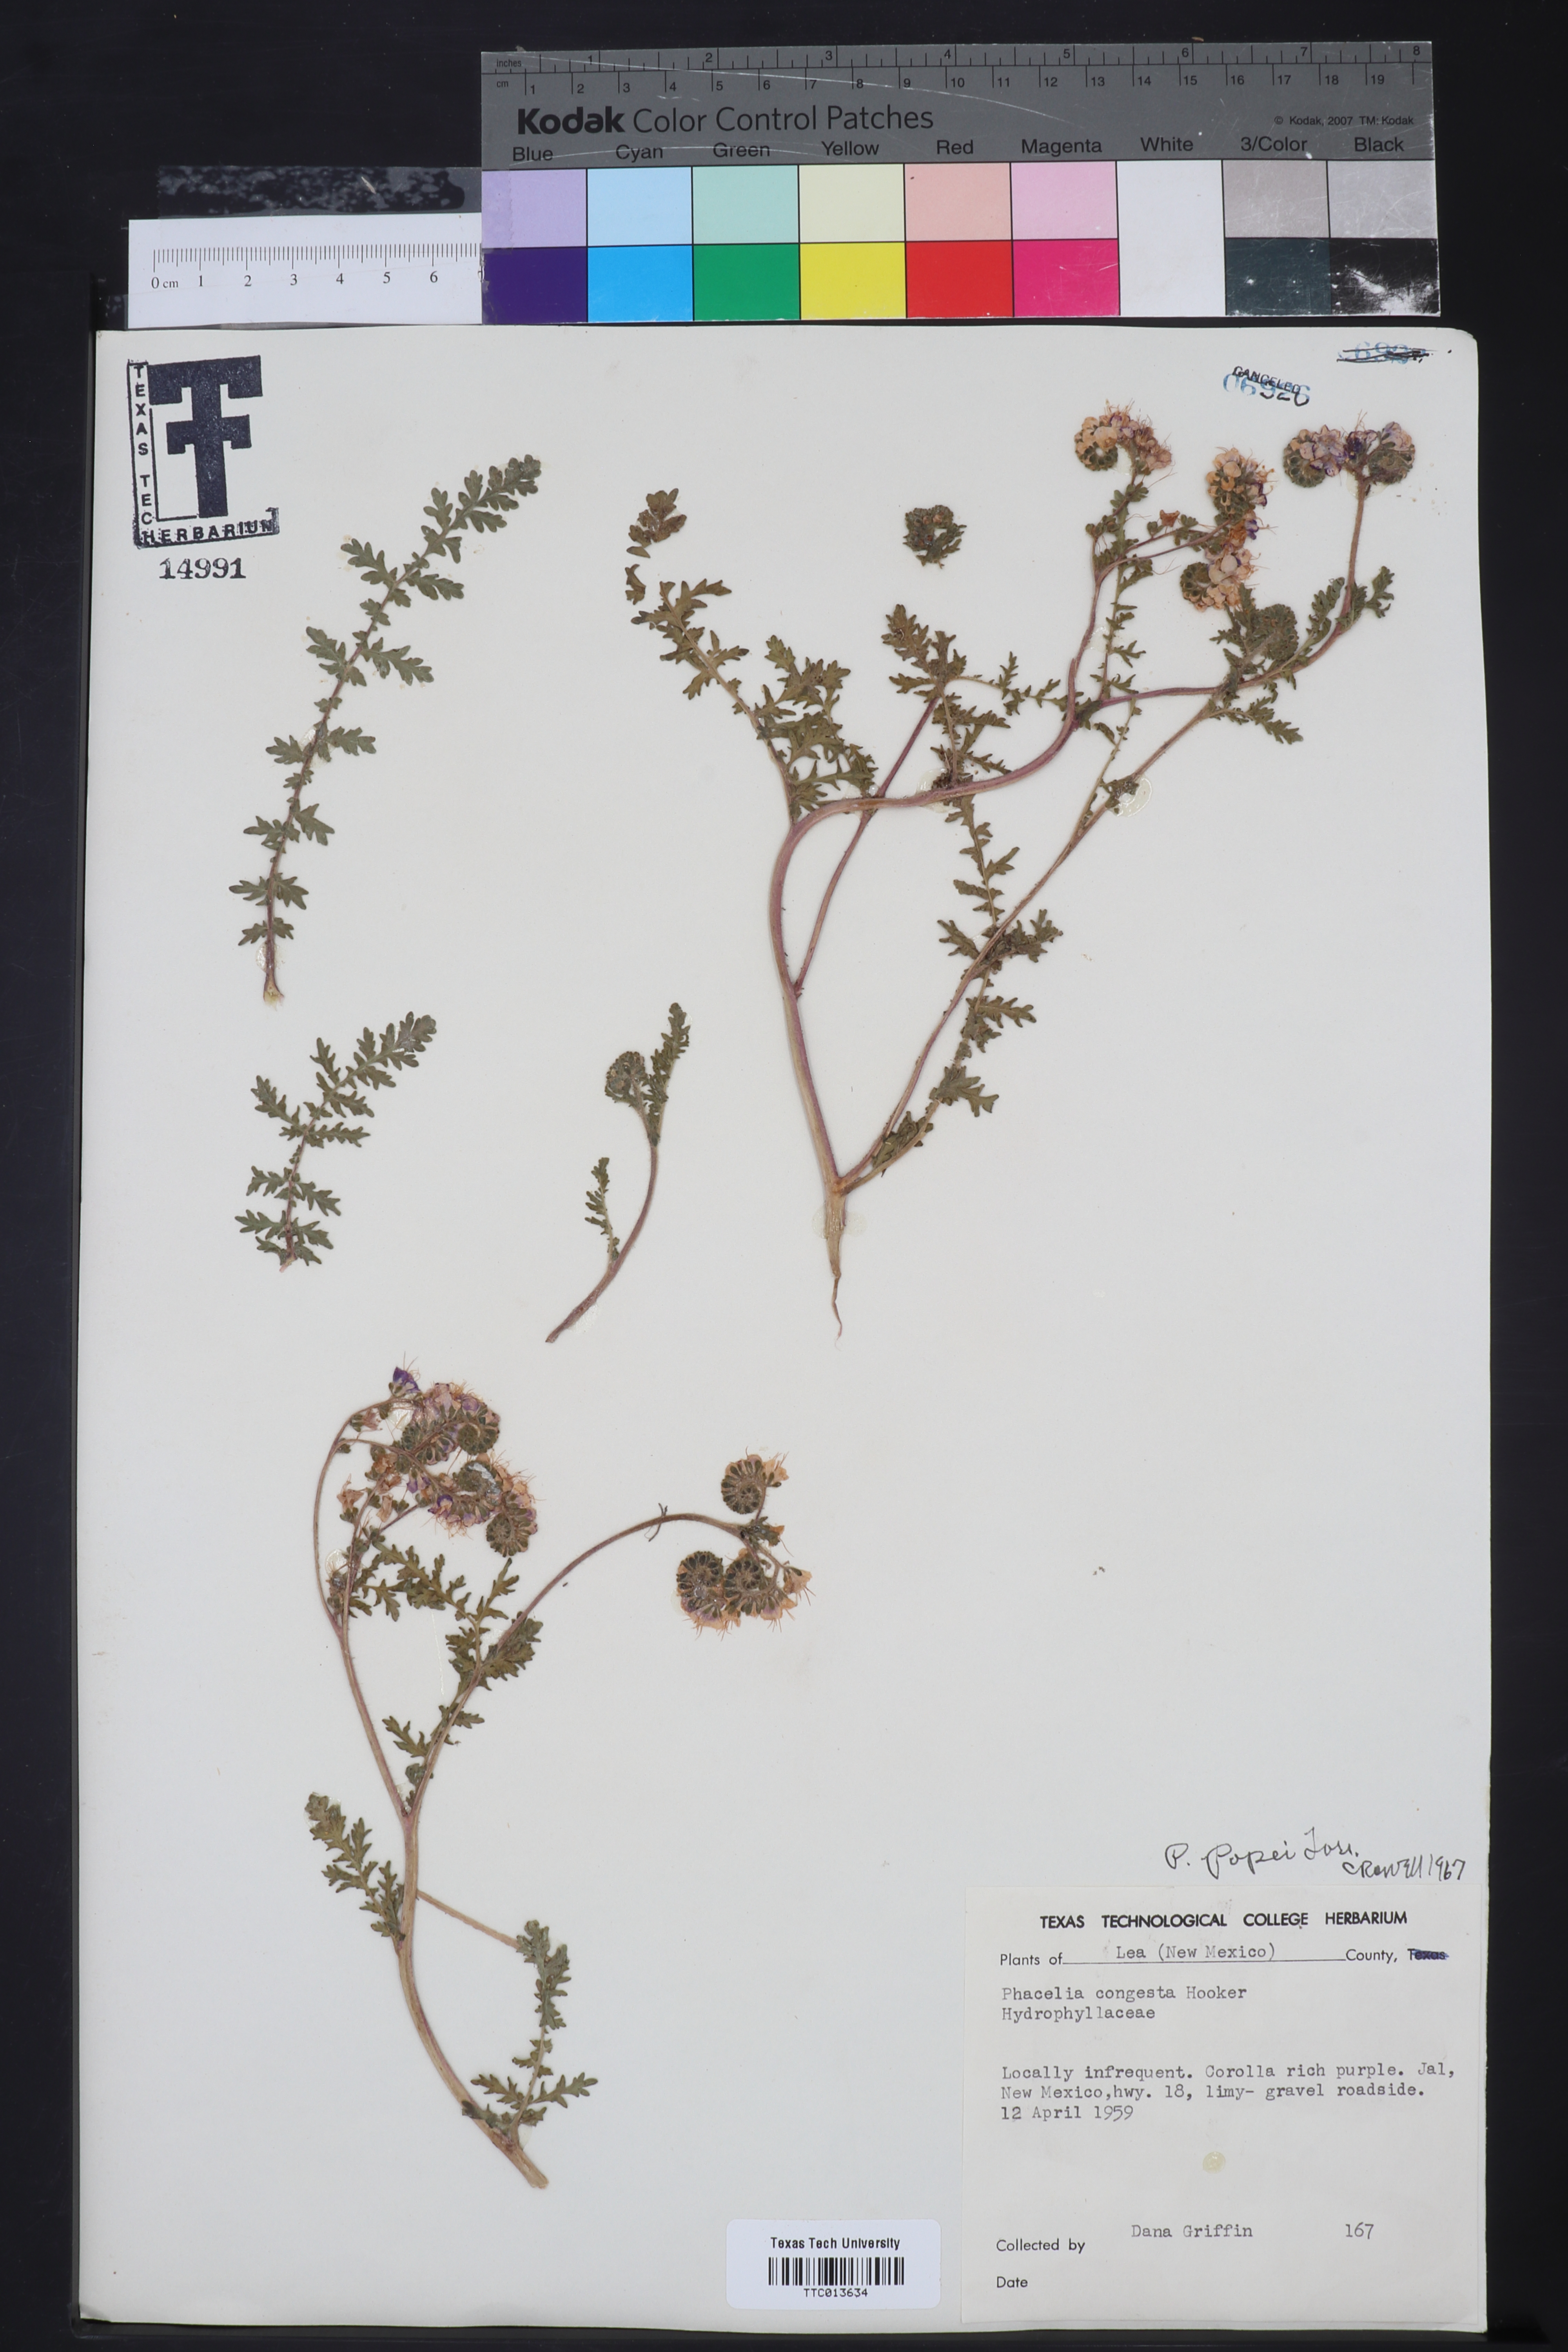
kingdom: Plantae
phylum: Tracheophyta
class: Magnoliopsida
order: Boraginales
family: Hydrophyllaceae
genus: Phacelia
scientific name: Phacelia popei
